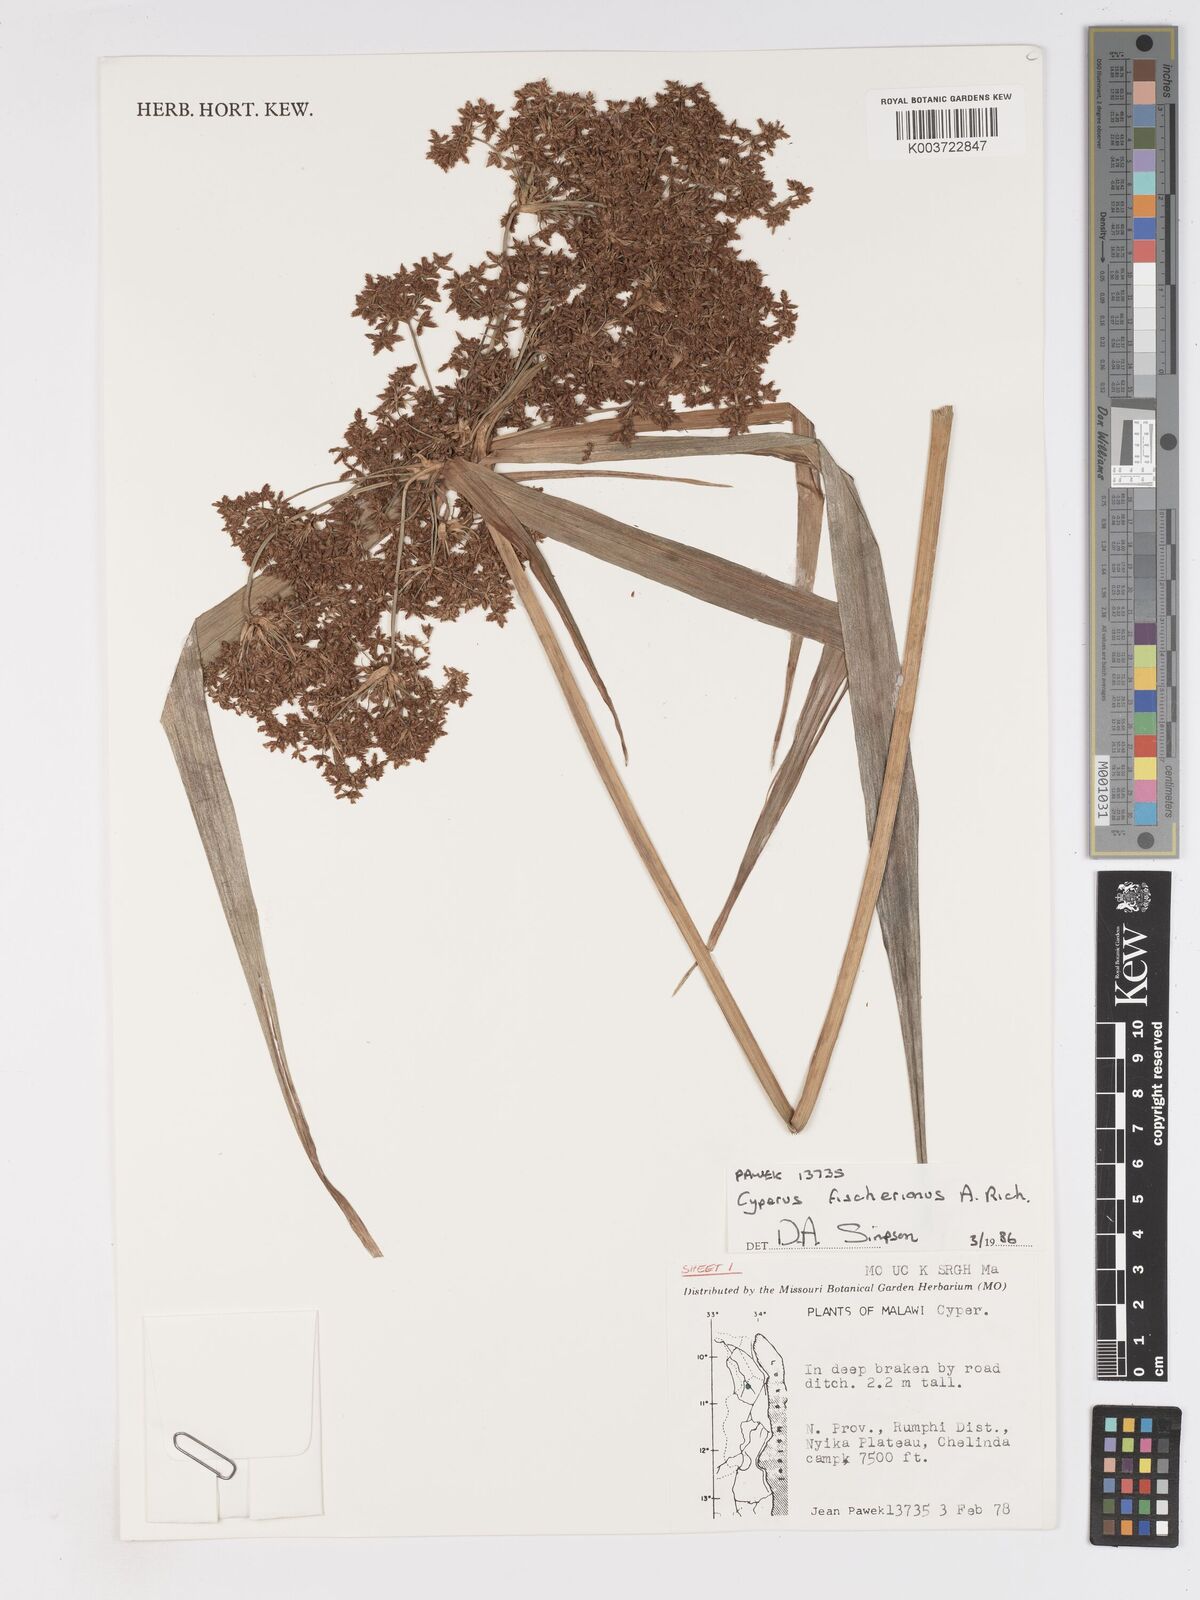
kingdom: Plantae
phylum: Tracheophyta
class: Liliopsida
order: Poales
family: Cyperaceae
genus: Cyperus
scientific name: Cyperus fischerianus
